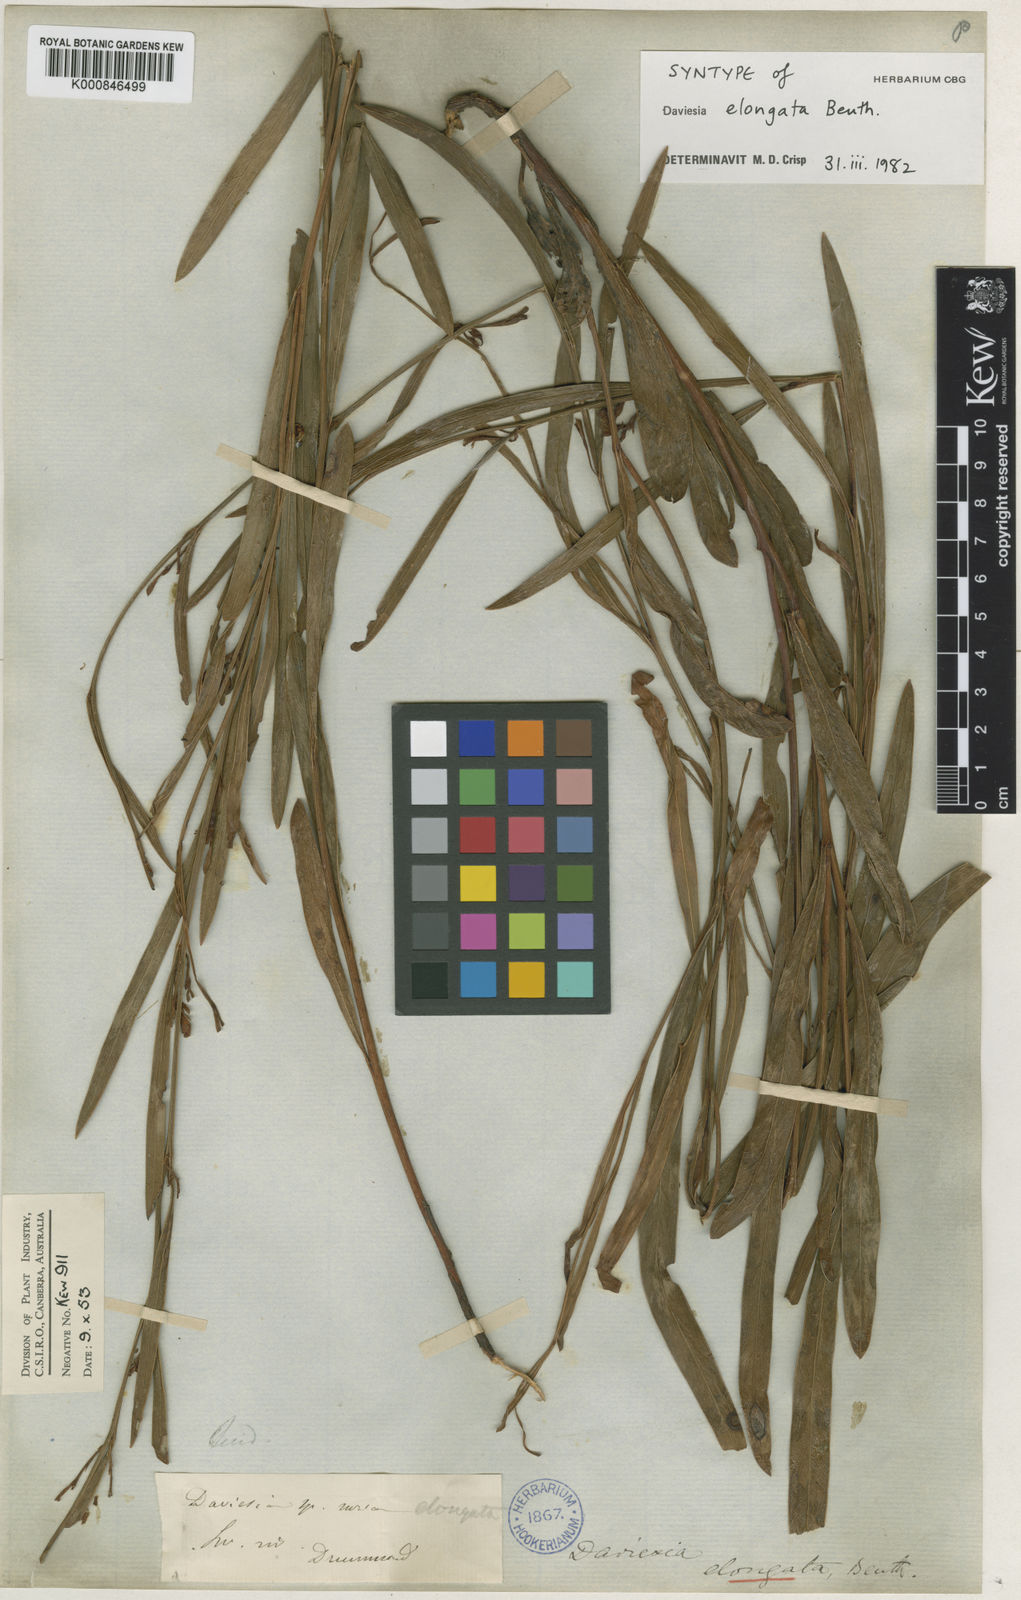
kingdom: Plantae
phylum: Tracheophyta
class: Magnoliopsida
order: Fabales
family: Fabaceae
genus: Daviesia
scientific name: Daviesia elongata
